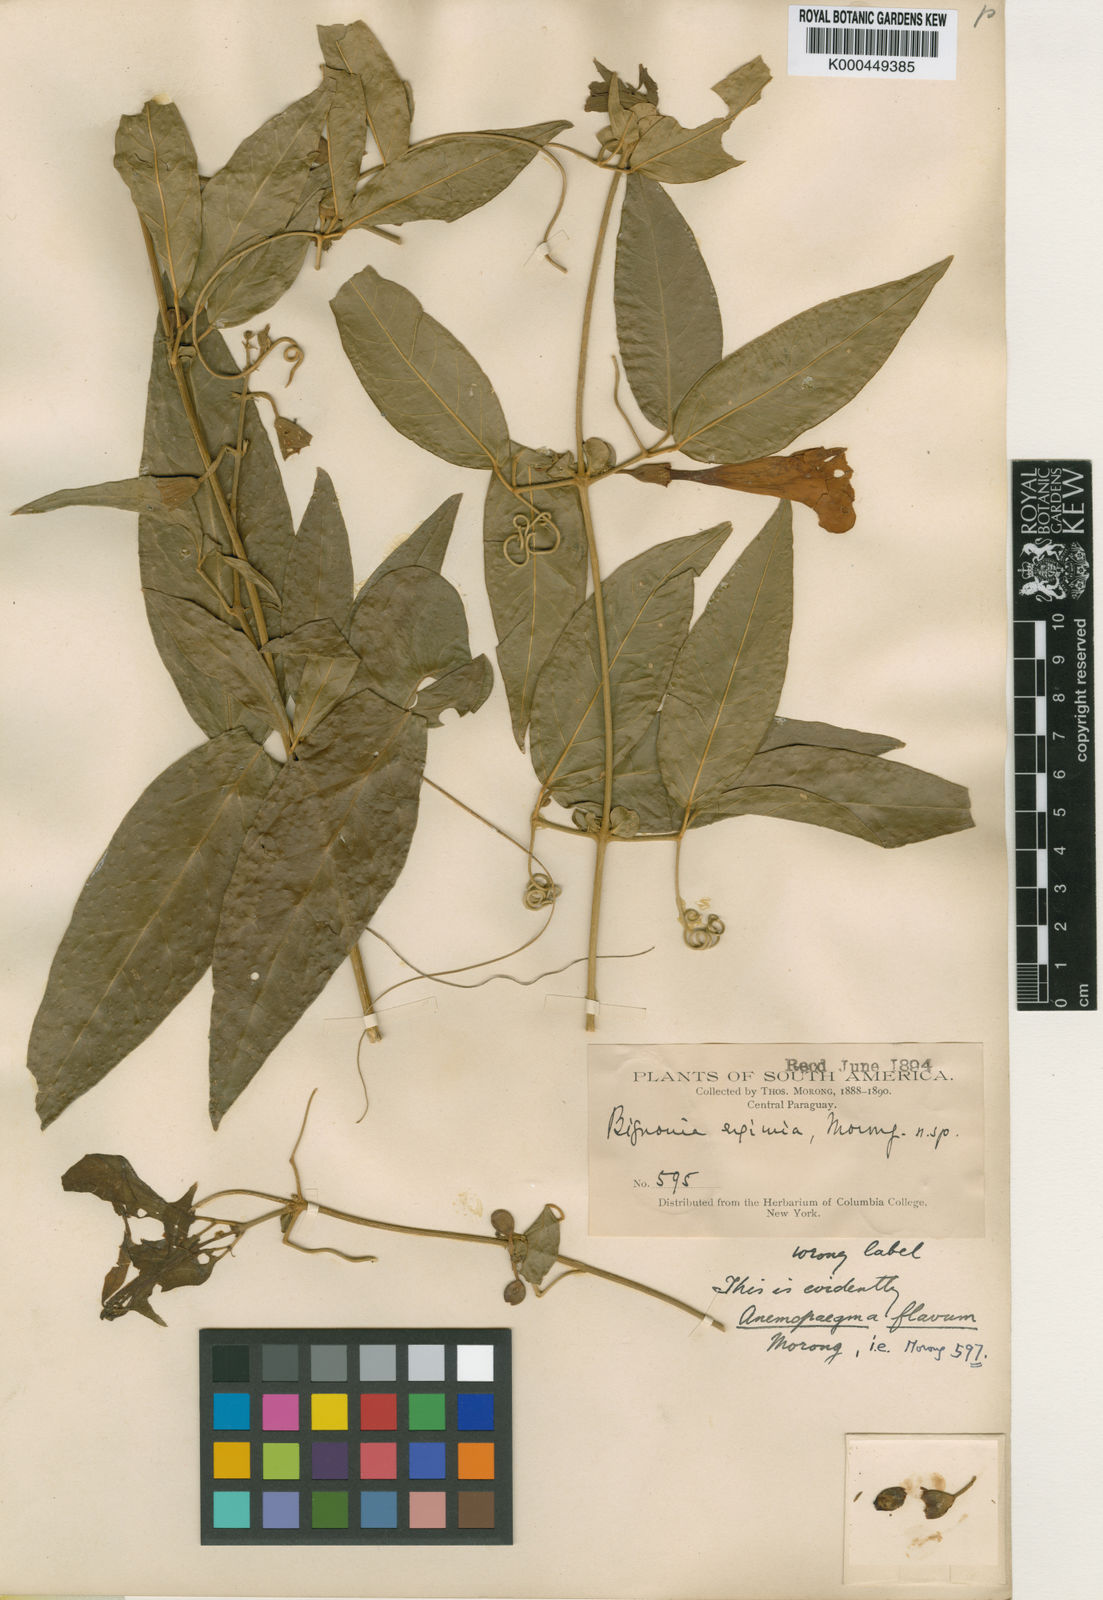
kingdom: Plantae
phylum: Tracheophyta
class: Magnoliopsida
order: Lamiales
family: Bignoniaceae
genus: Anemopaegma
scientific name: Anemopaegma flavum
